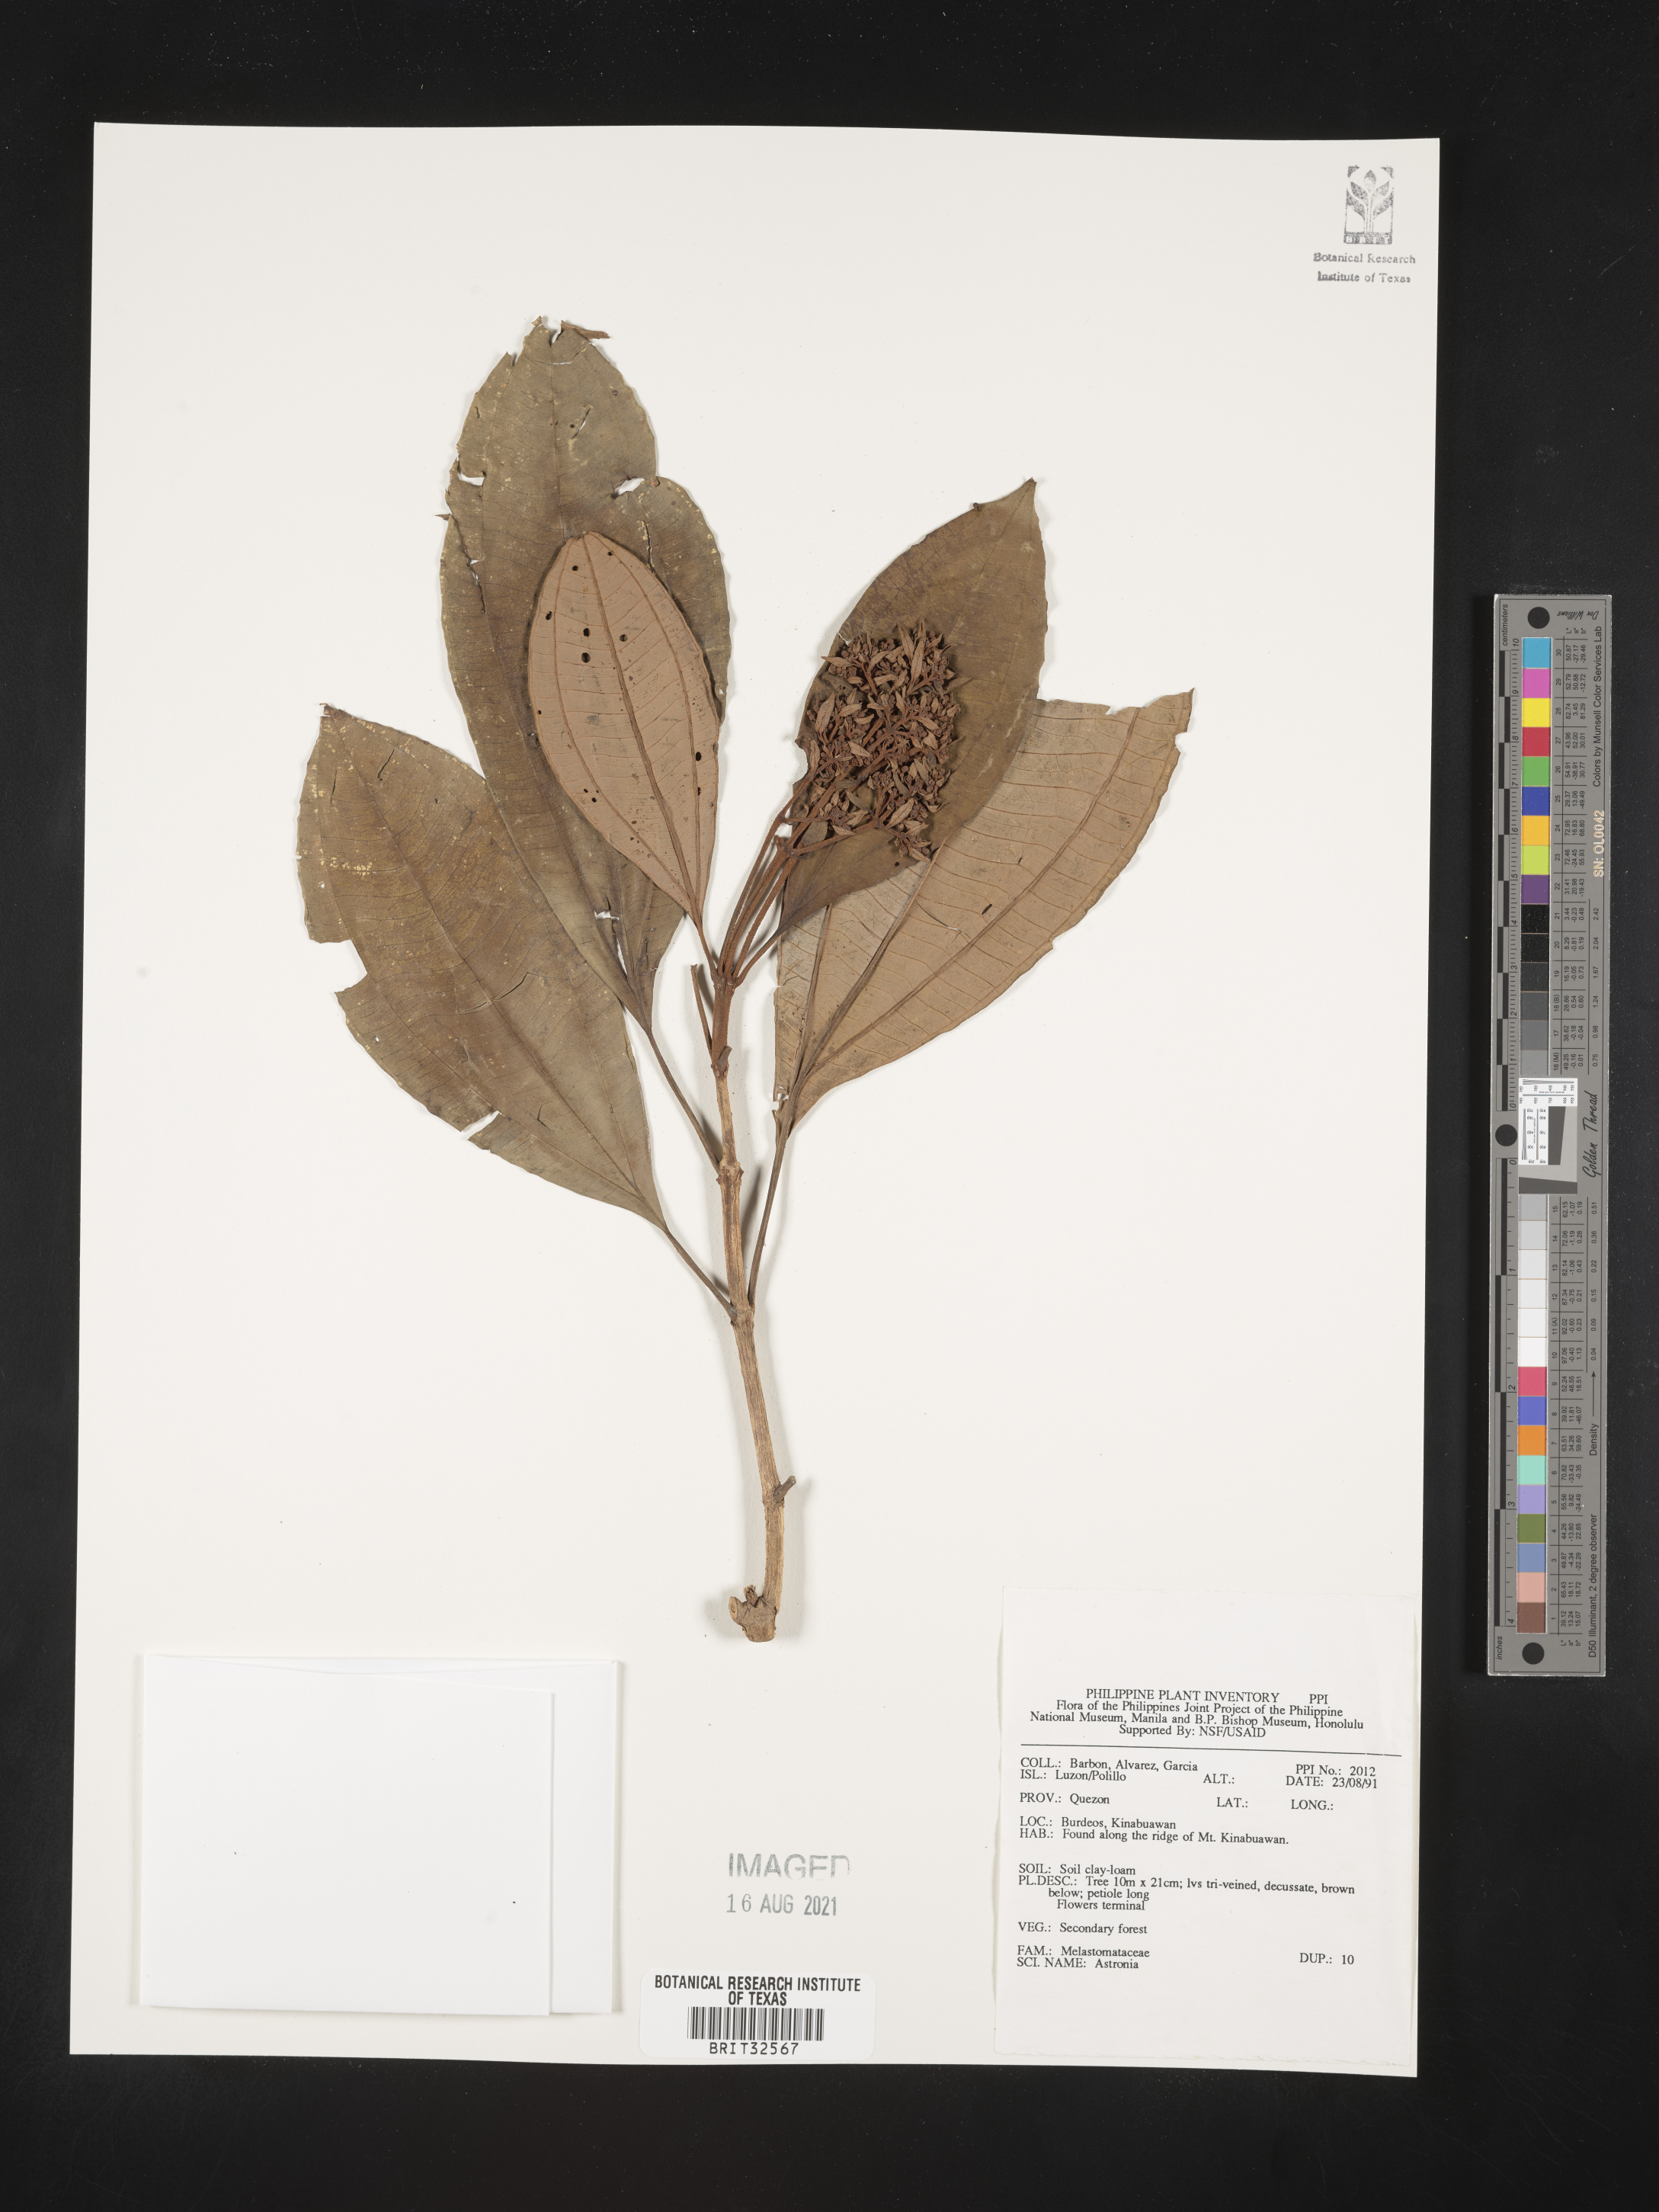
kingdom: Plantae
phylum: Tracheophyta
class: Magnoliopsida
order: Myrtales
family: Melastomataceae
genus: Astronia
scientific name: Astronia
